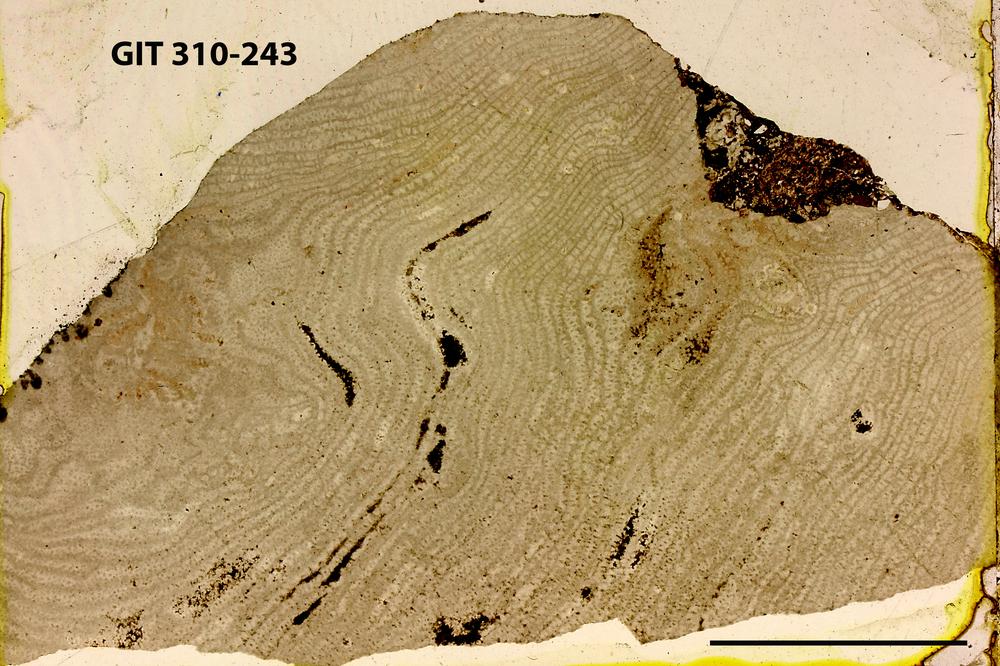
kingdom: Animalia
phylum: Porifera
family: Stromatoporellidae
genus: Simplexodictyon
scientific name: Simplexodictyon
